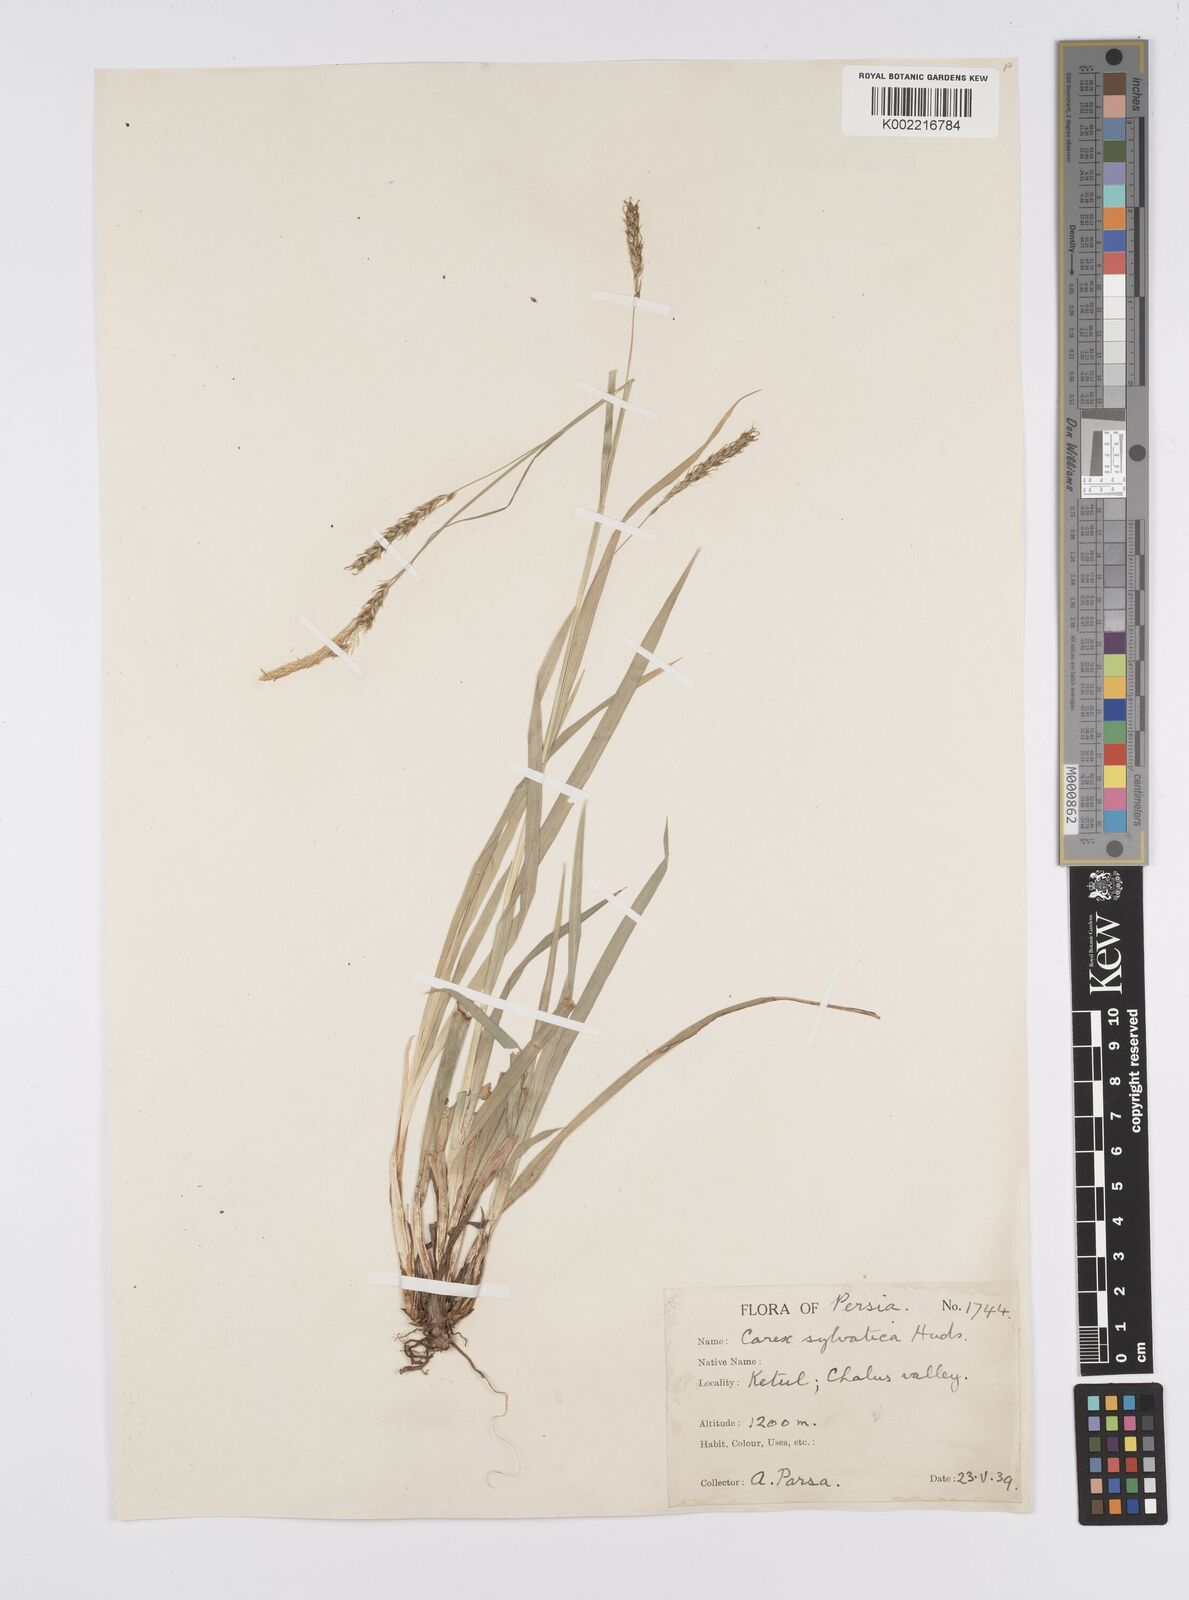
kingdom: Plantae
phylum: Tracheophyta
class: Liliopsida
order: Poales
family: Cyperaceae
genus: Carex
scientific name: Carex sylvatica
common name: Wood-sedge
